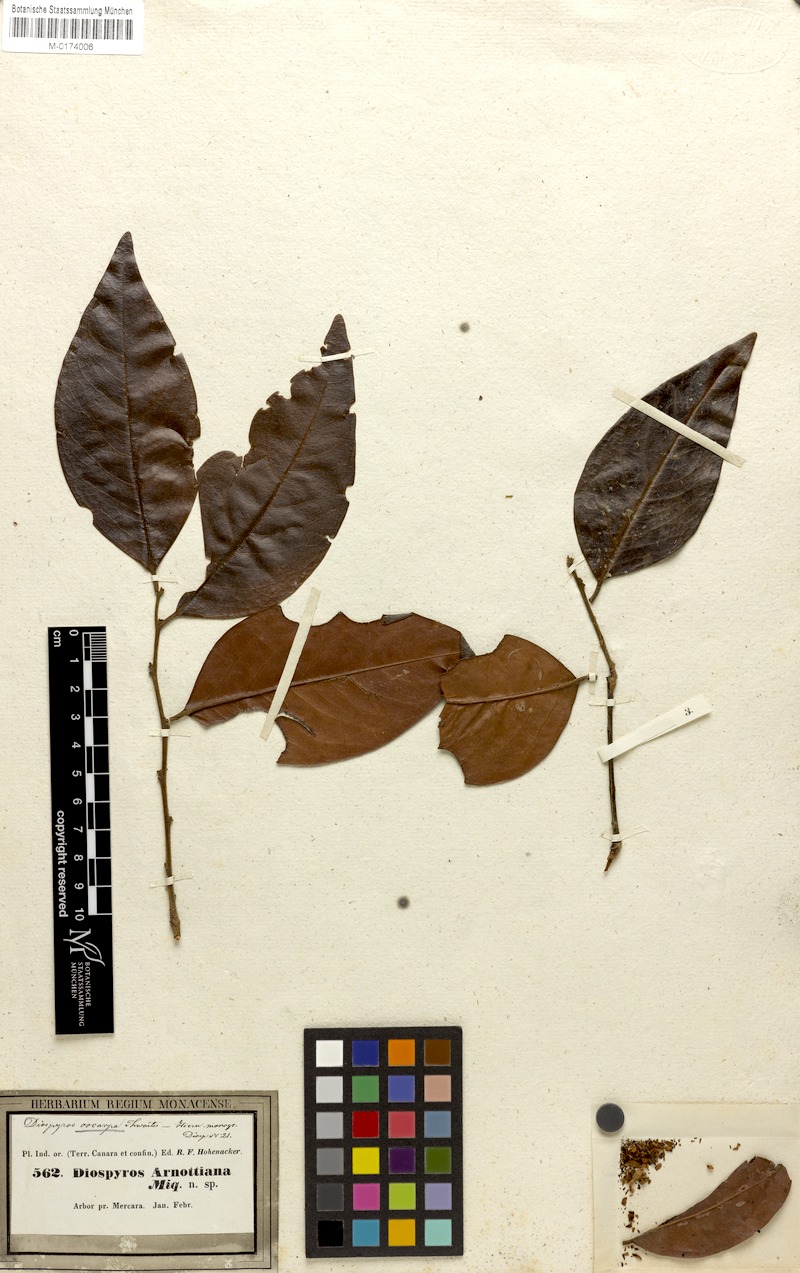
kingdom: Plantae
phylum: Tracheophyta
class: Magnoliopsida
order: Ericales
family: Ebenaceae
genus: Diospyros
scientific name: Diospyros candolleana
